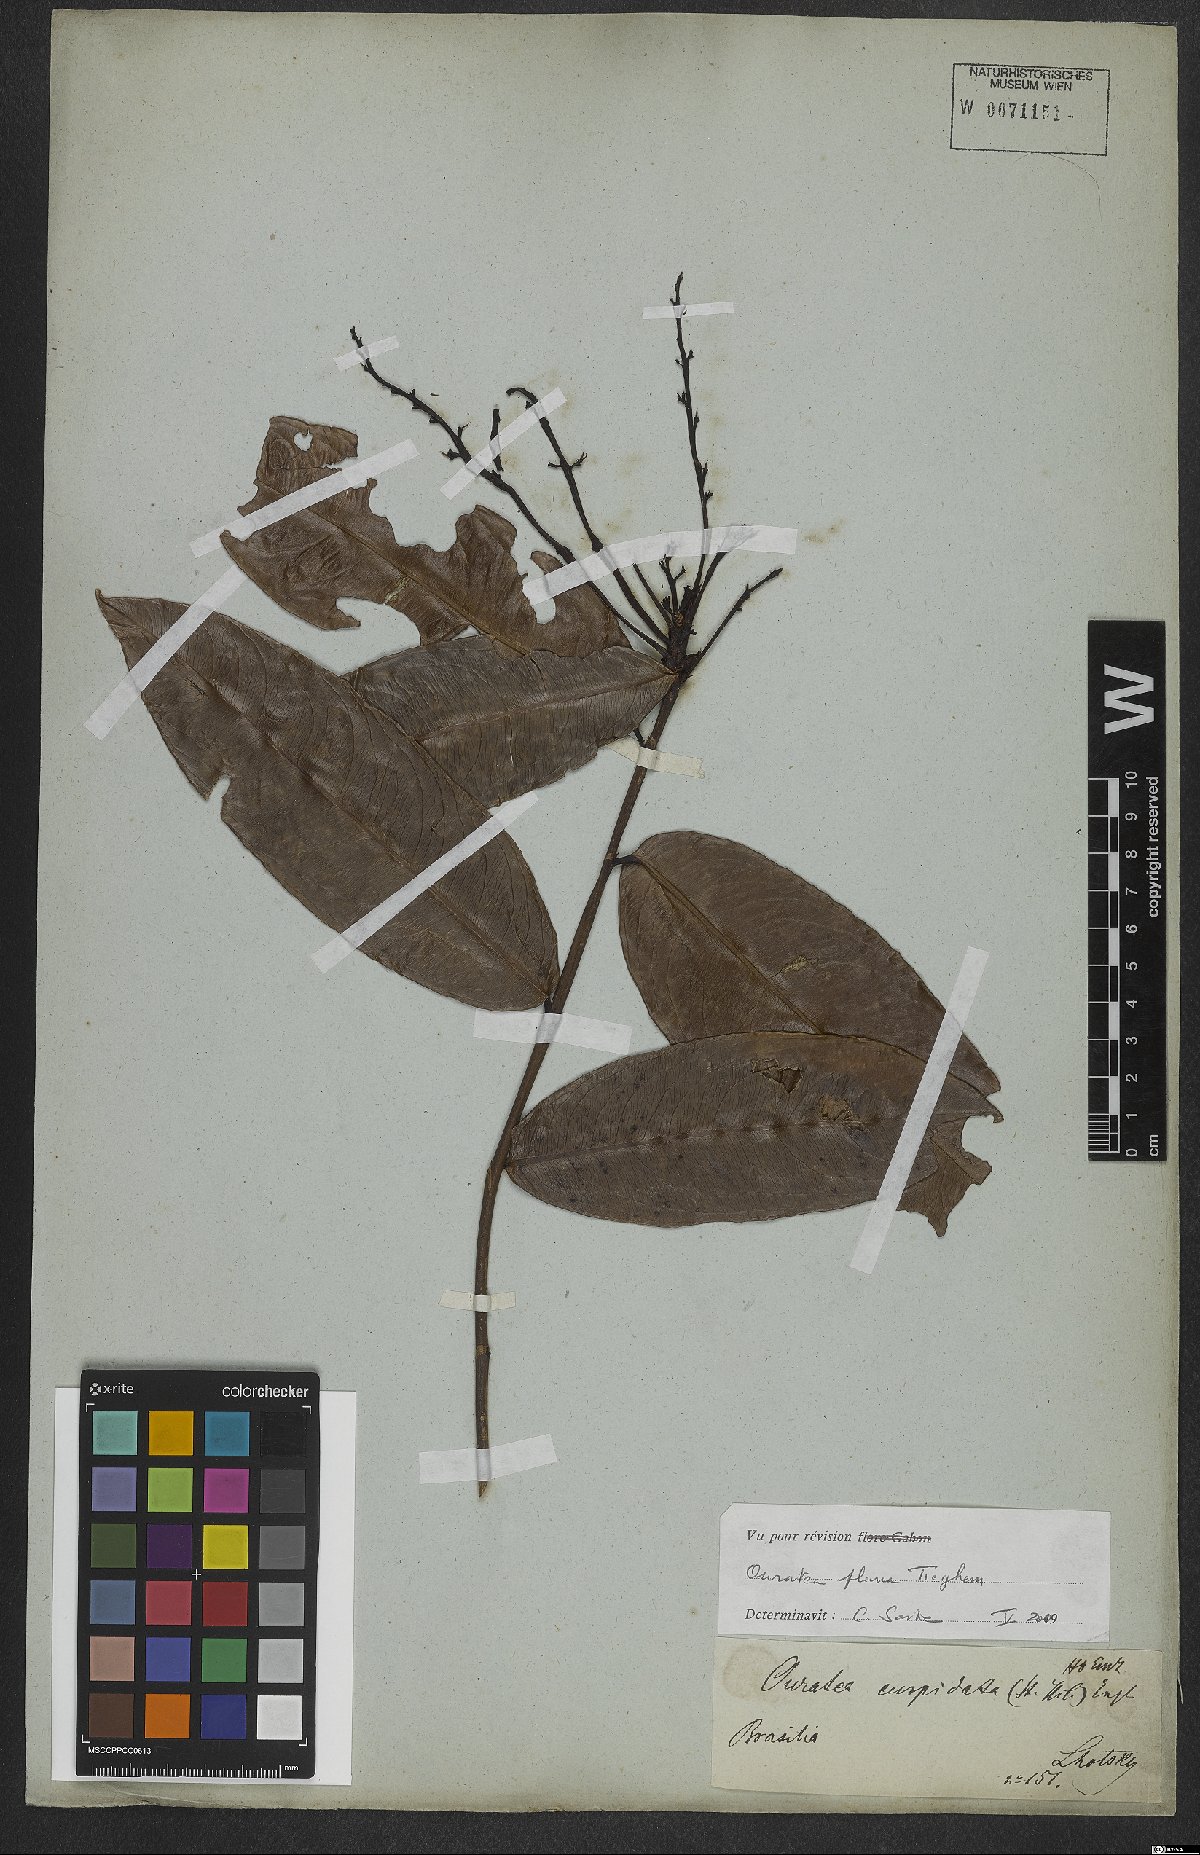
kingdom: Plantae
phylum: Tracheophyta
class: Magnoliopsida
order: Malpighiales
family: Ochnaceae
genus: Campylospermum
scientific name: Campylospermum flavum
